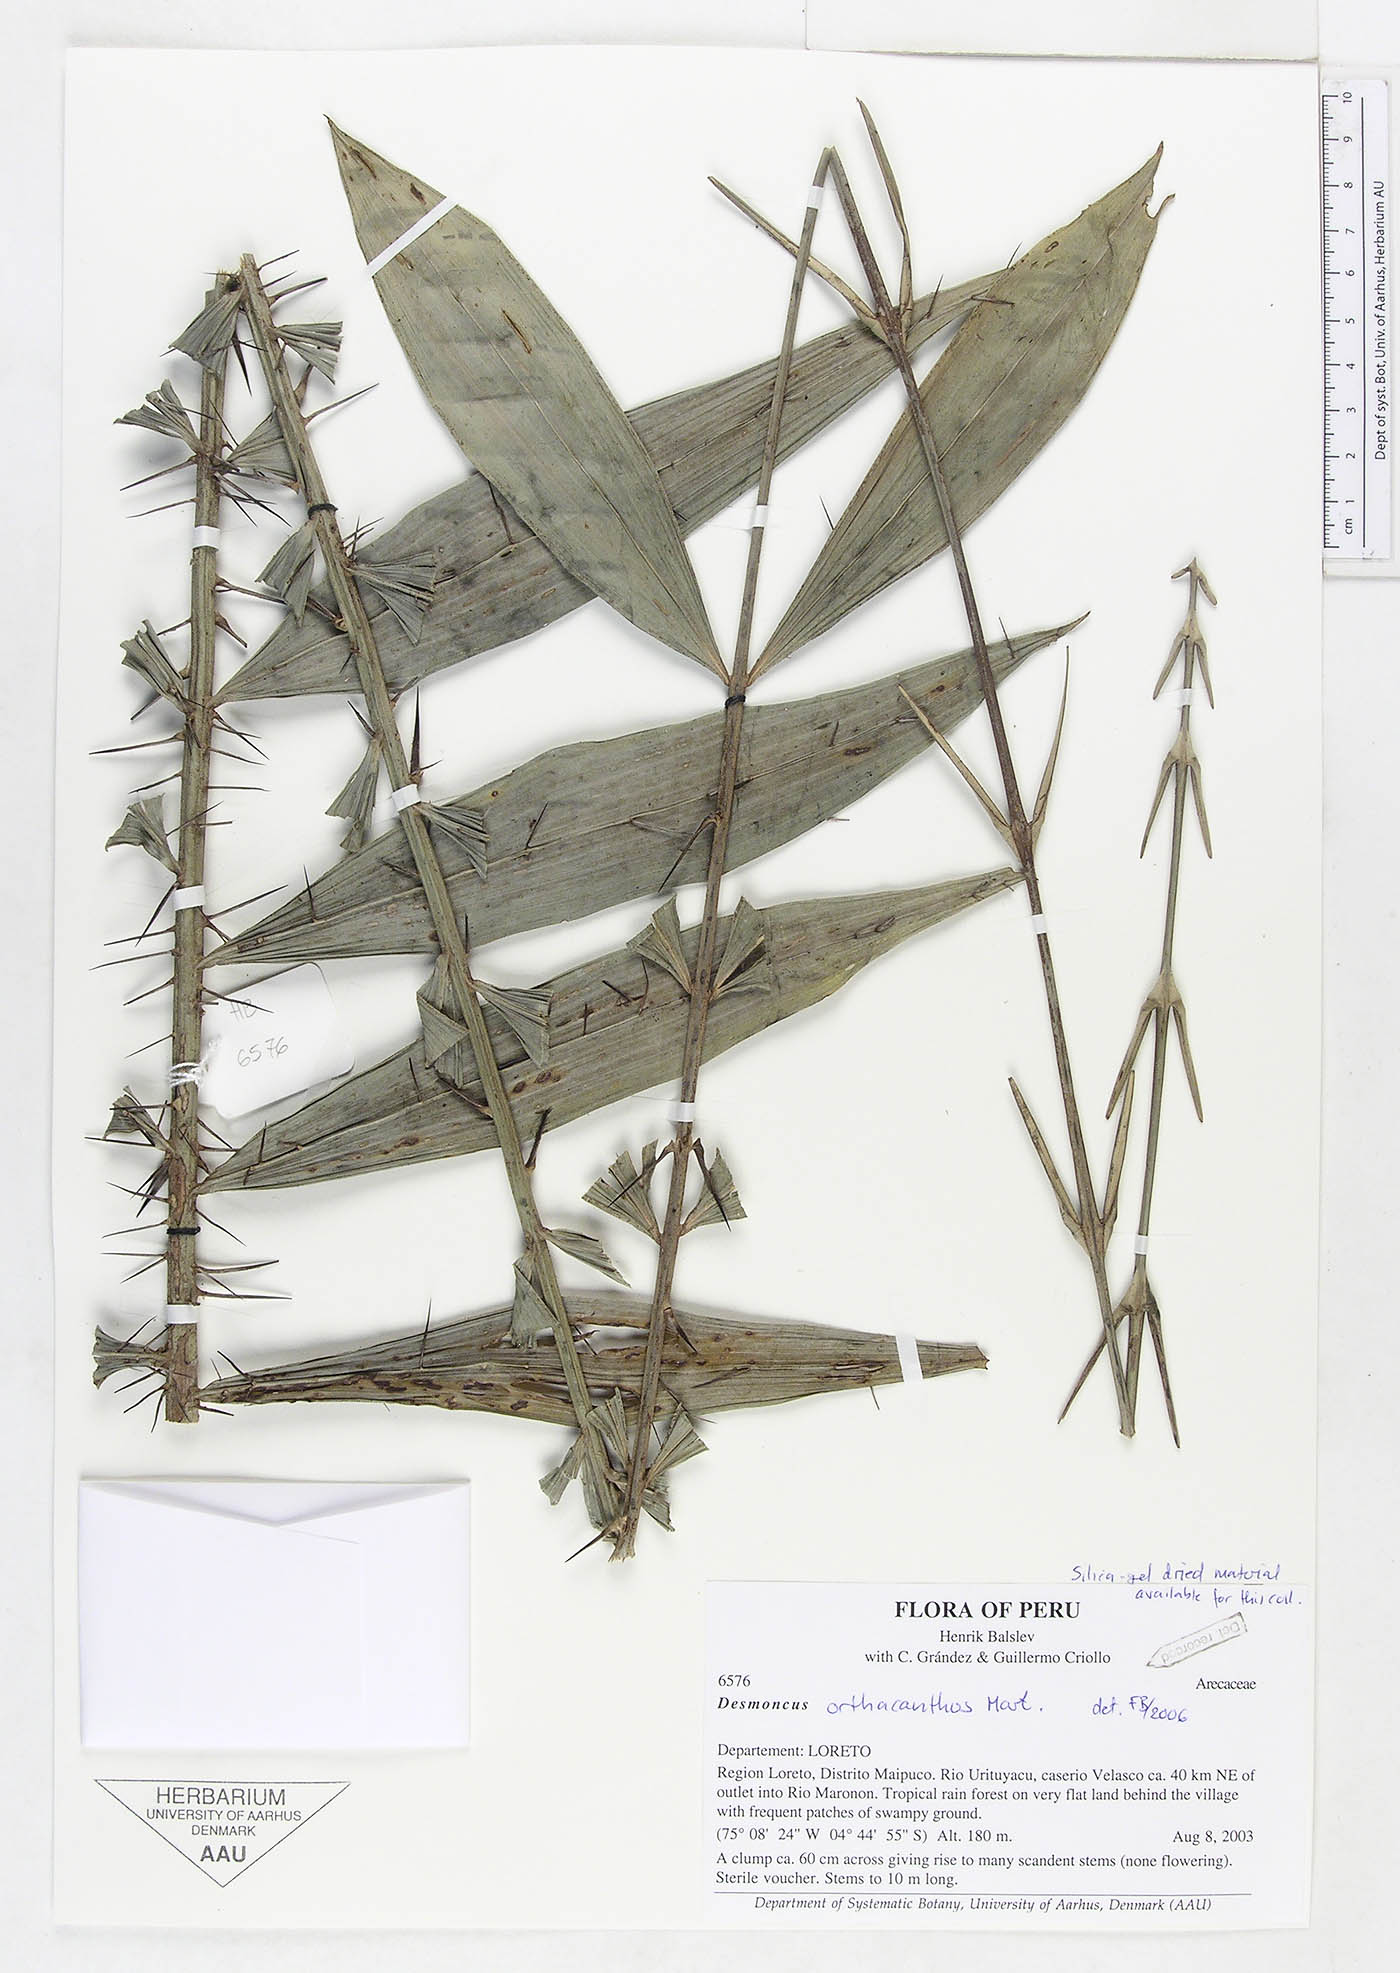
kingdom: Plantae
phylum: Tracheophyta
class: Liliopsida
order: Arecales
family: Arecaceae
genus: Desmoncus
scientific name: Desmoncus horridus
